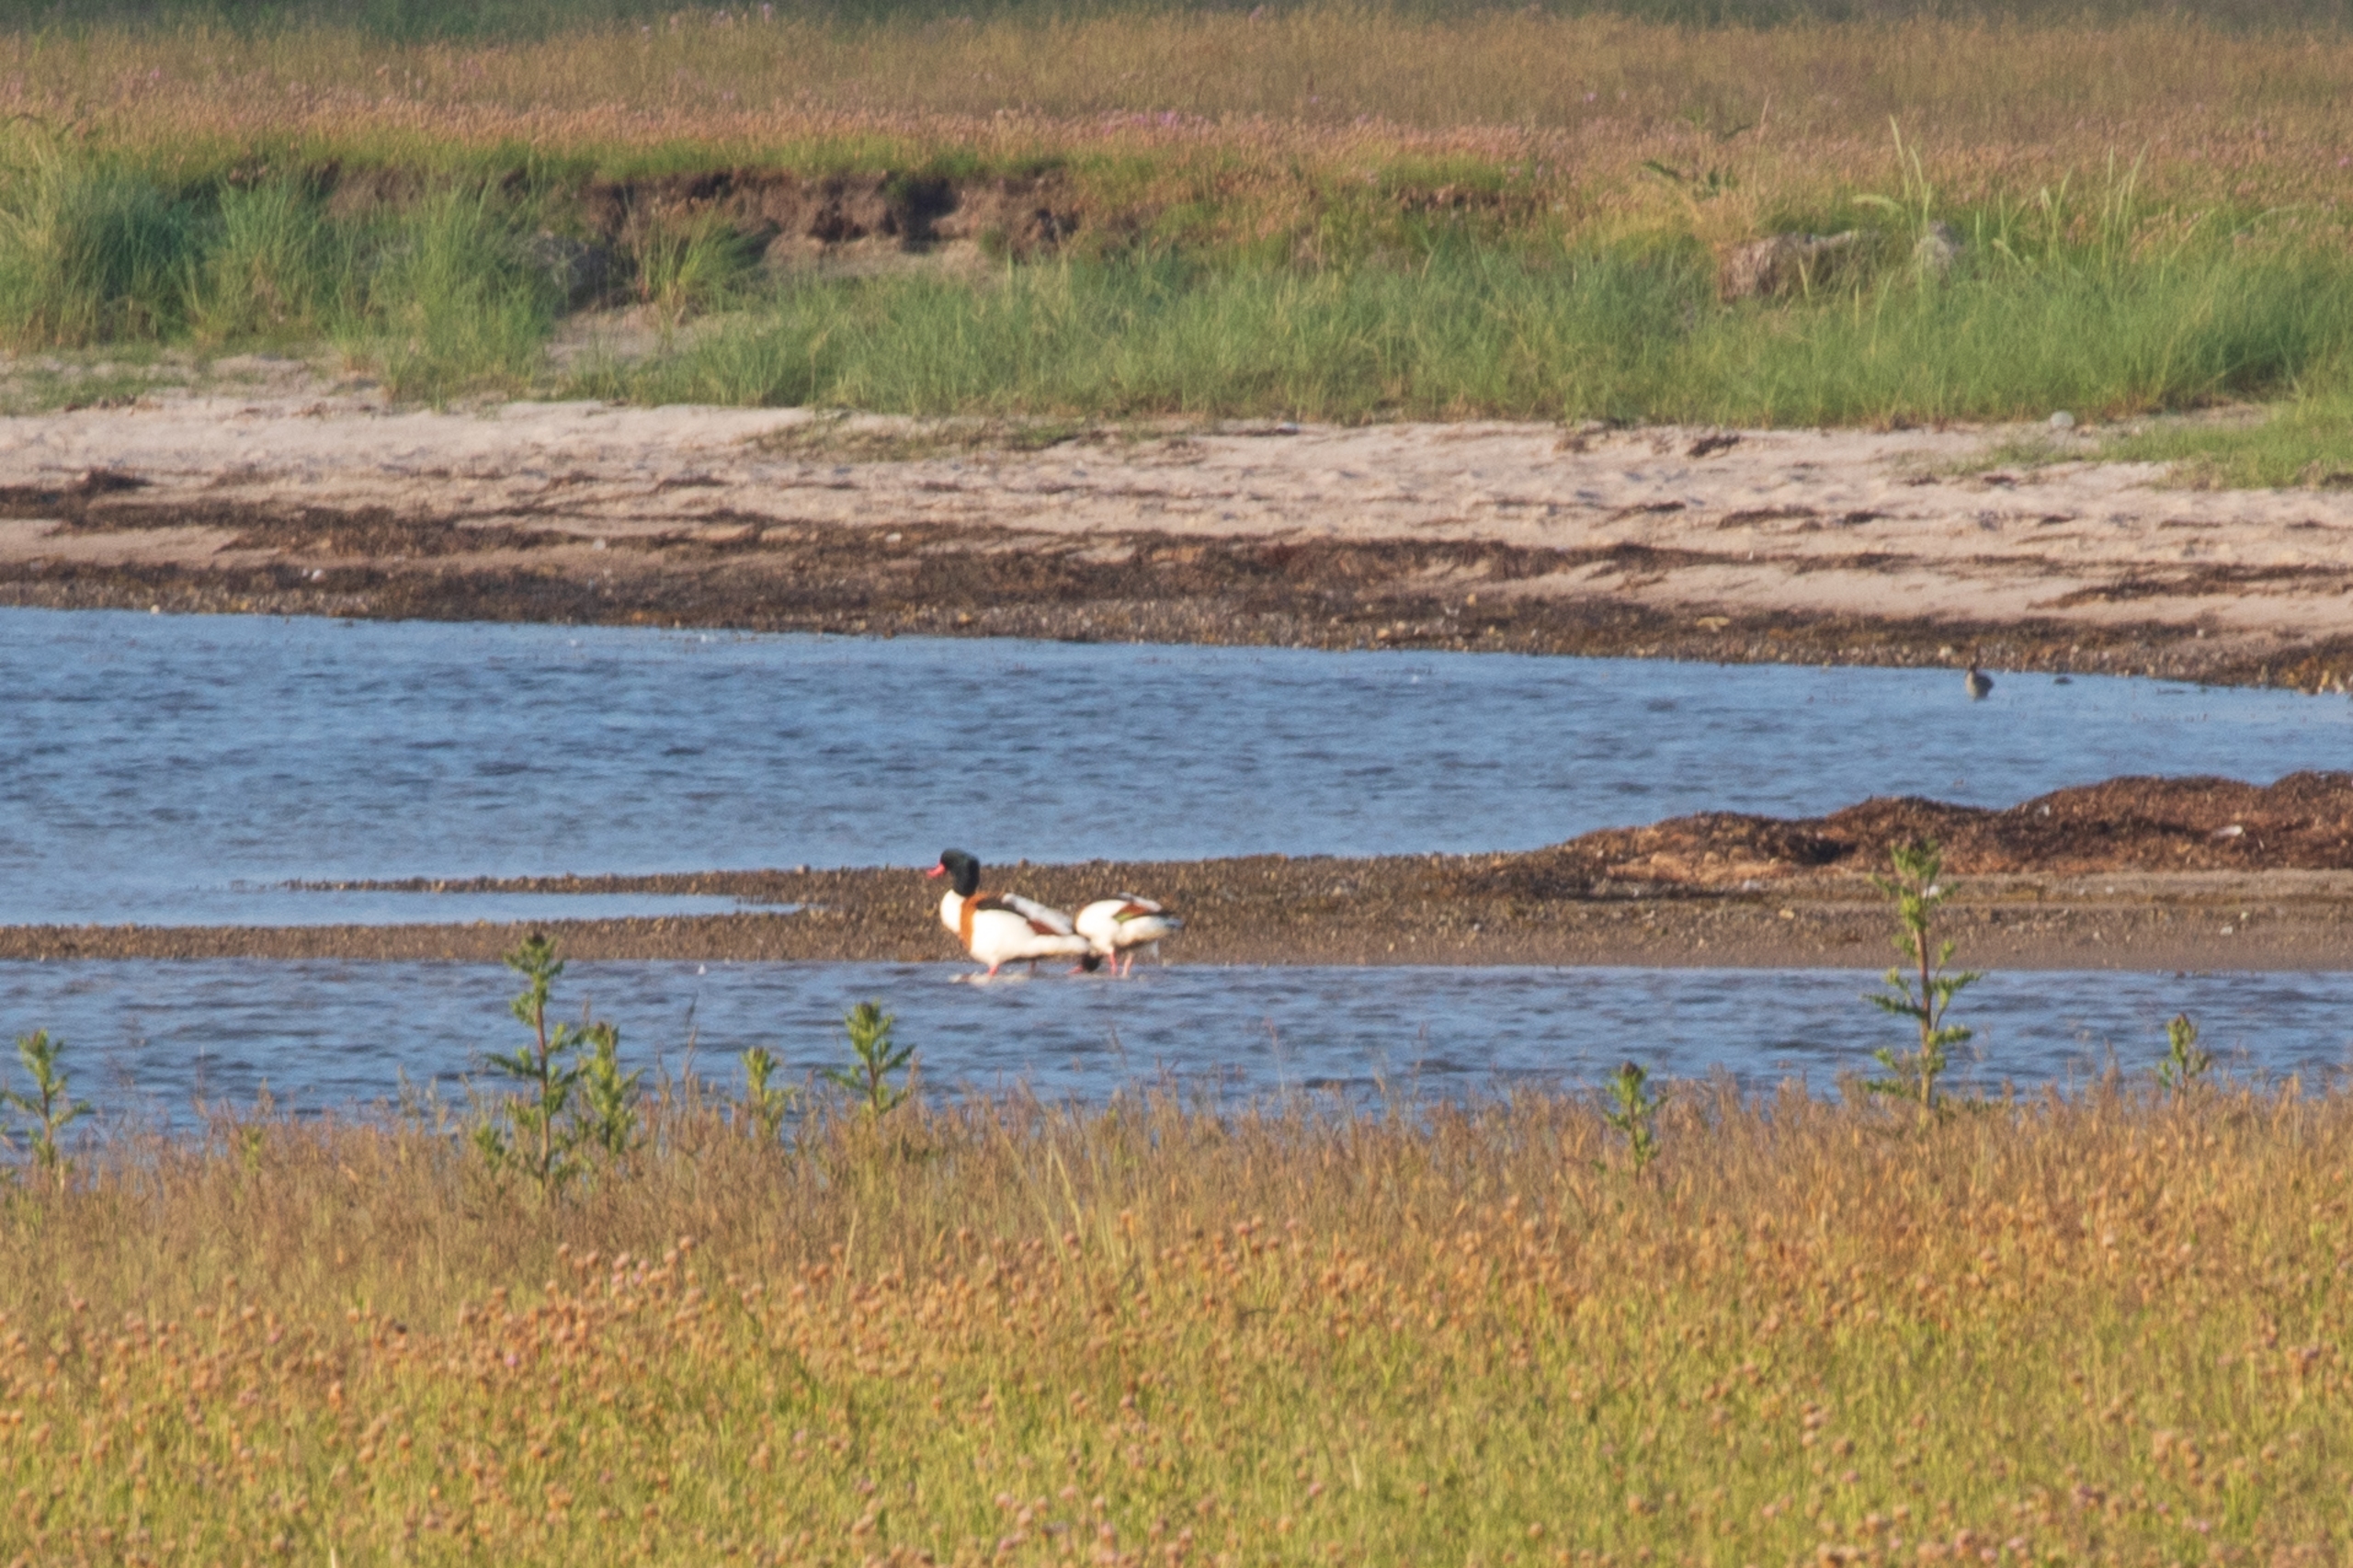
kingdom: Animalia
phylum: Chordata
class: Aves
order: Anseriformes
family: Anatidae
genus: Tadorna
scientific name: Tadorna tadorna
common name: Gravand
